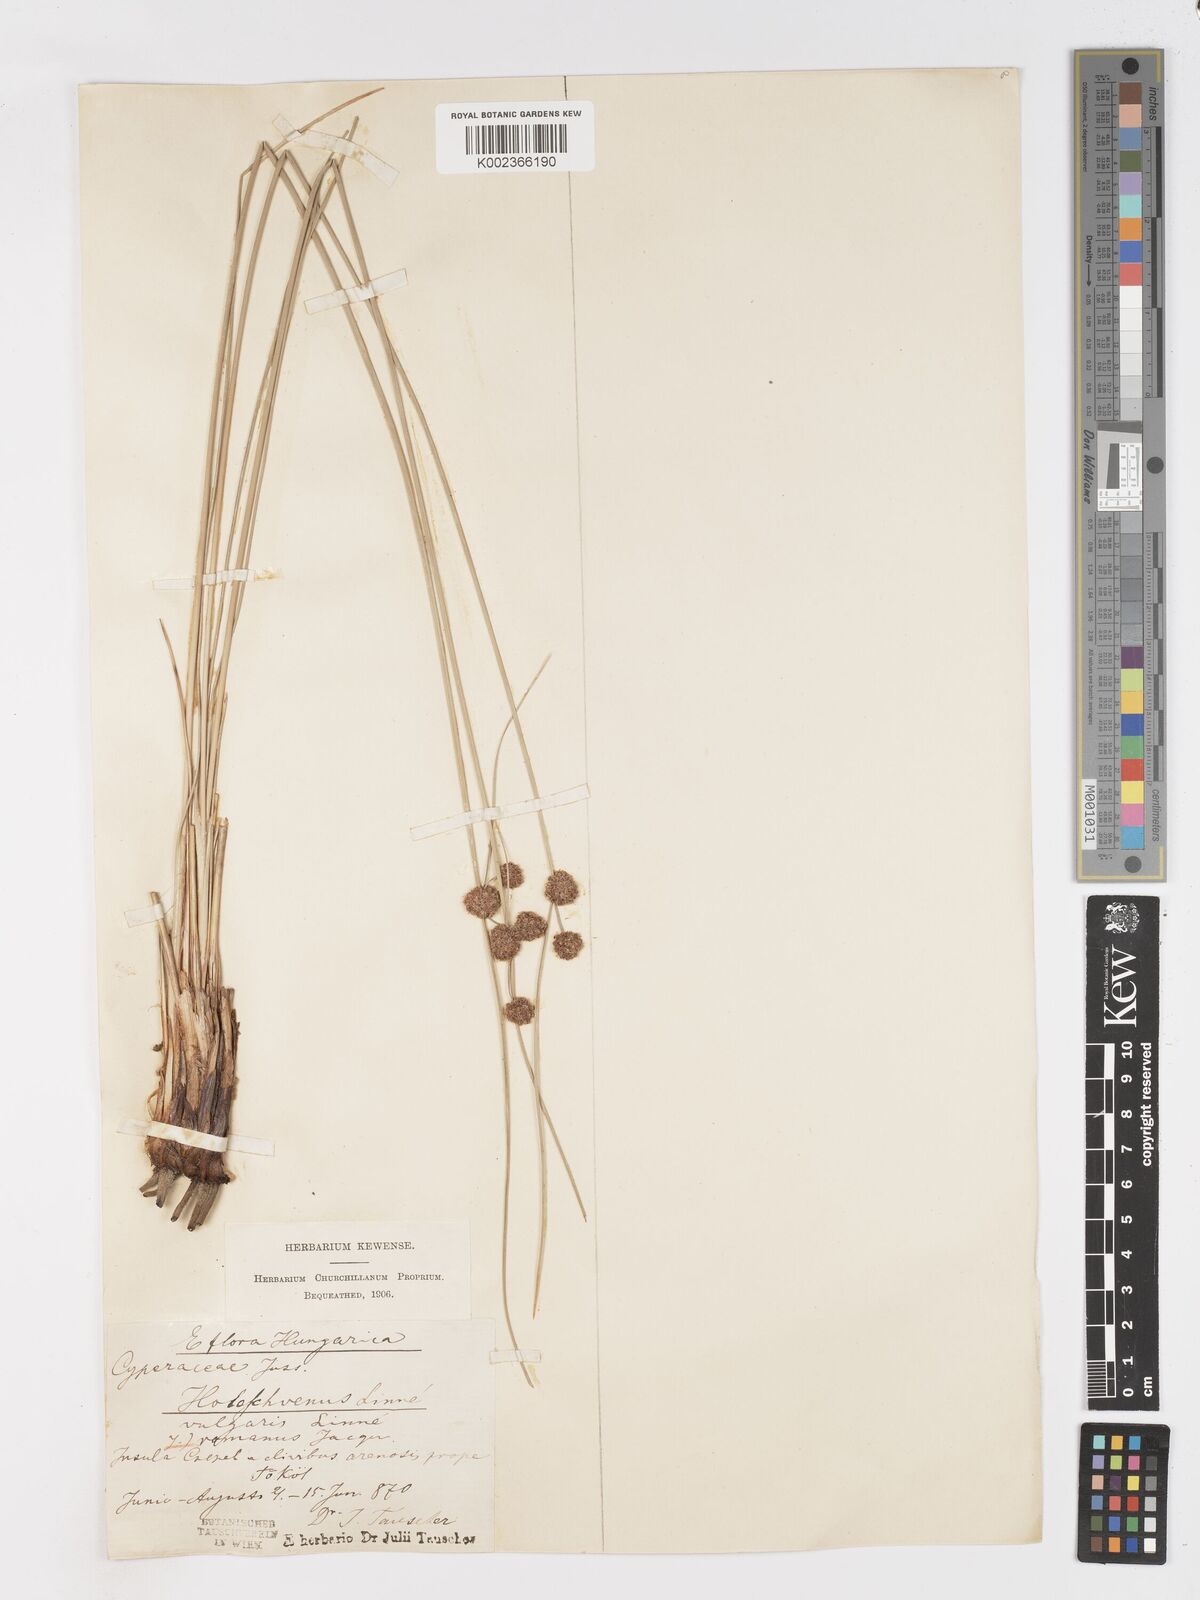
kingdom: Plantae
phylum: Tracheophyta
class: Liliopsida
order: Poales
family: Cyperaceae
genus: Scirpoides
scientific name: Scirpoides holoschoenus
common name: Round-headed club-rush
